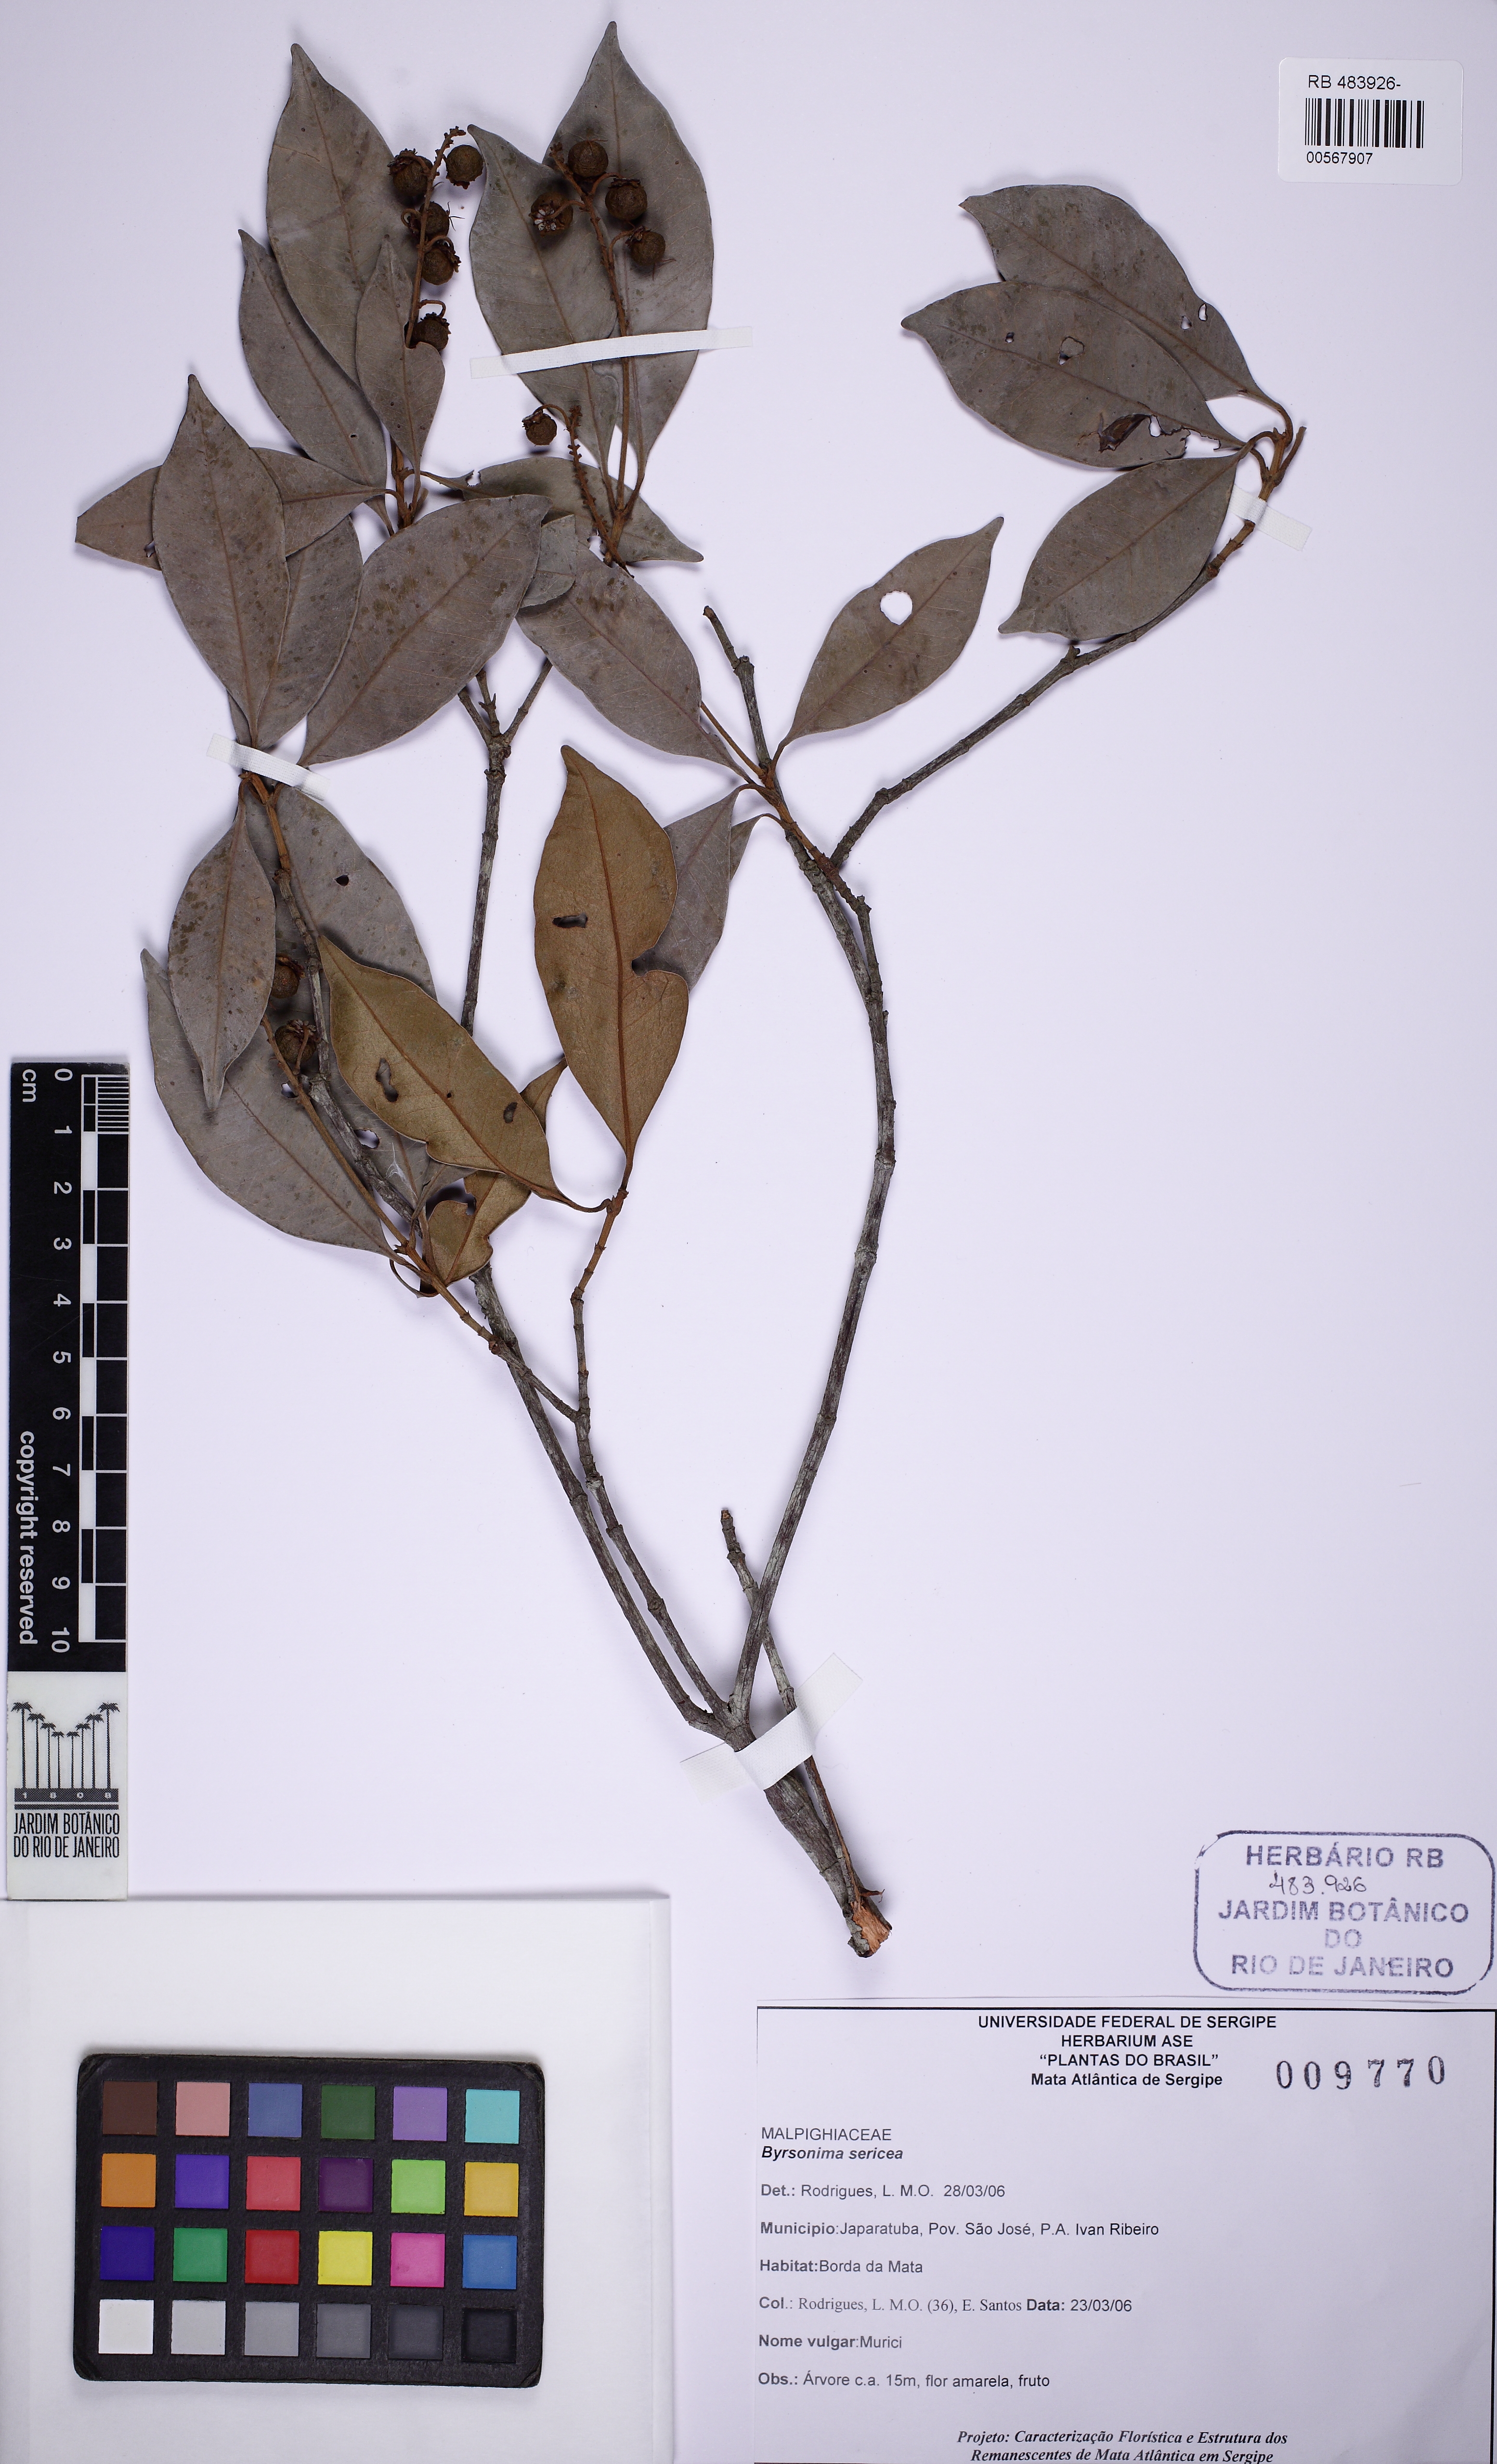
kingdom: Plantae
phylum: Tracheophyta
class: Magnoliopsida
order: Malpighiales
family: Malpighiaceae
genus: Byrsonima
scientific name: Byrsonima sericea
